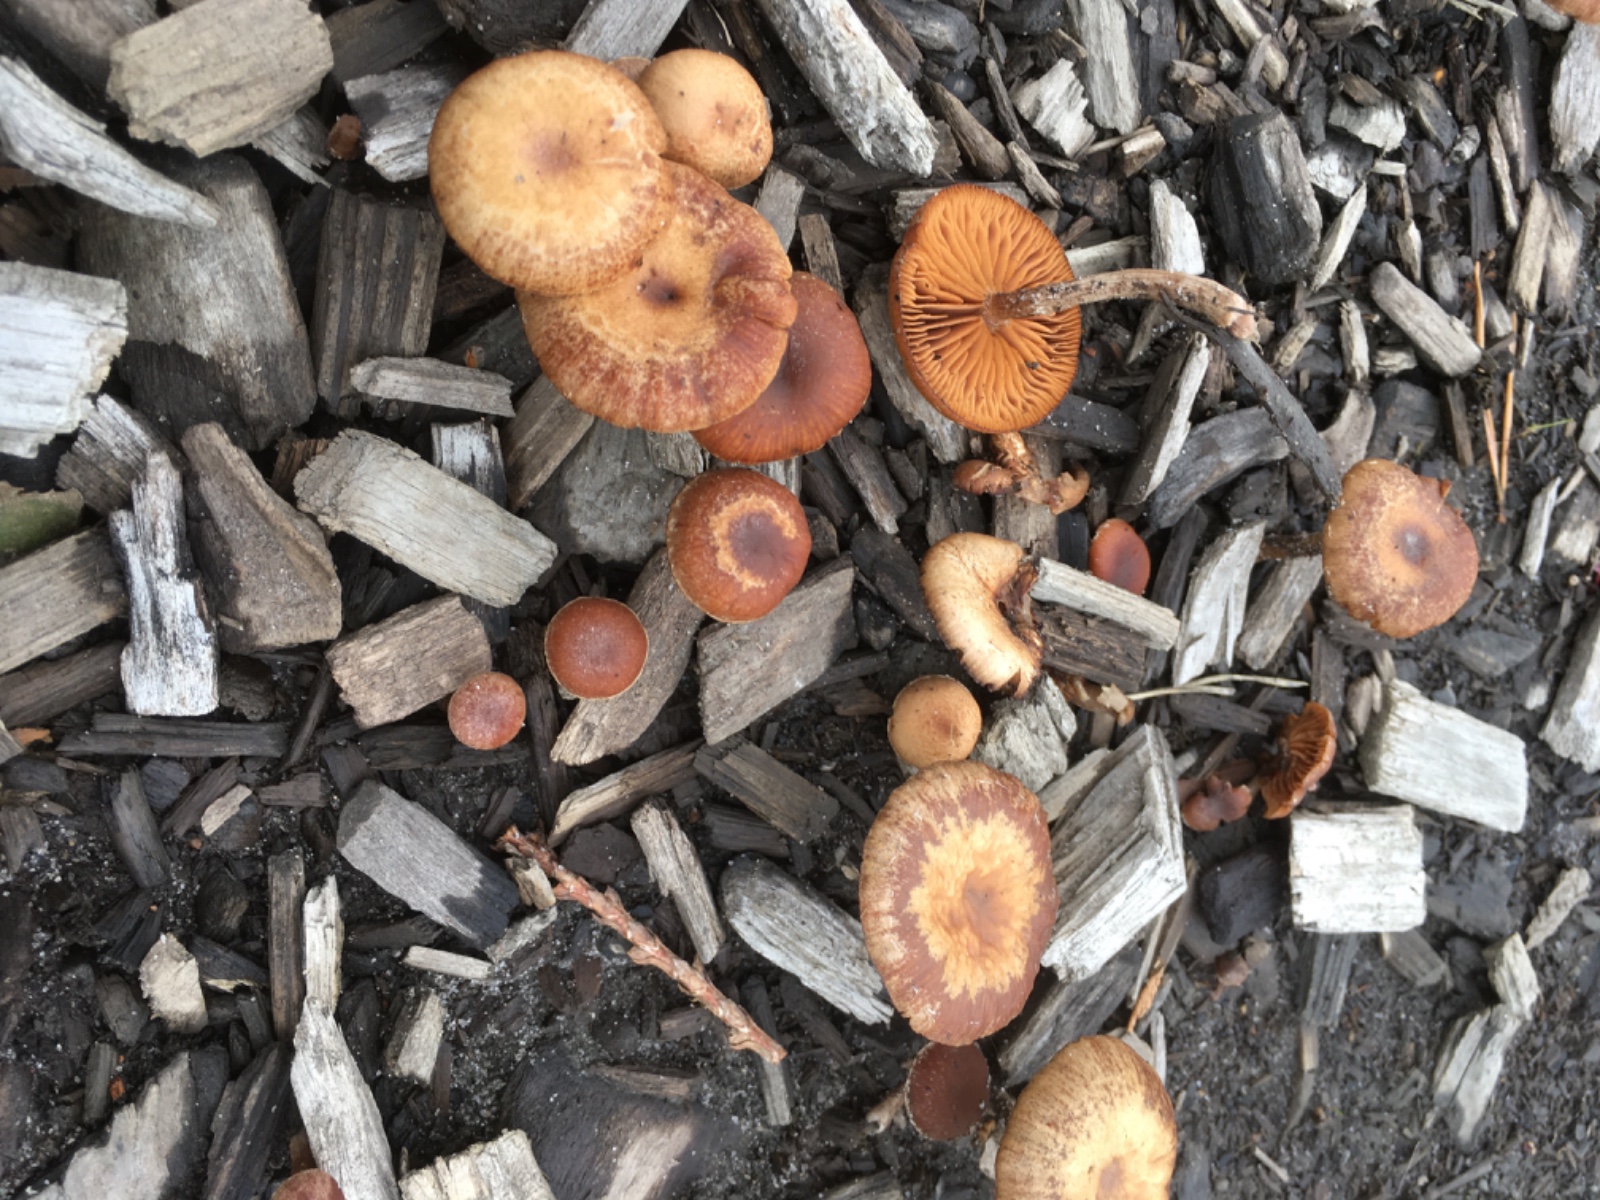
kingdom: Fungi
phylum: Basidiomycota
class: Agaricomycetes
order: Agaricales
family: Tubariaceae
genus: Tubaria
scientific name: Tubaria furfuracea
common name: kliddet fnughat
